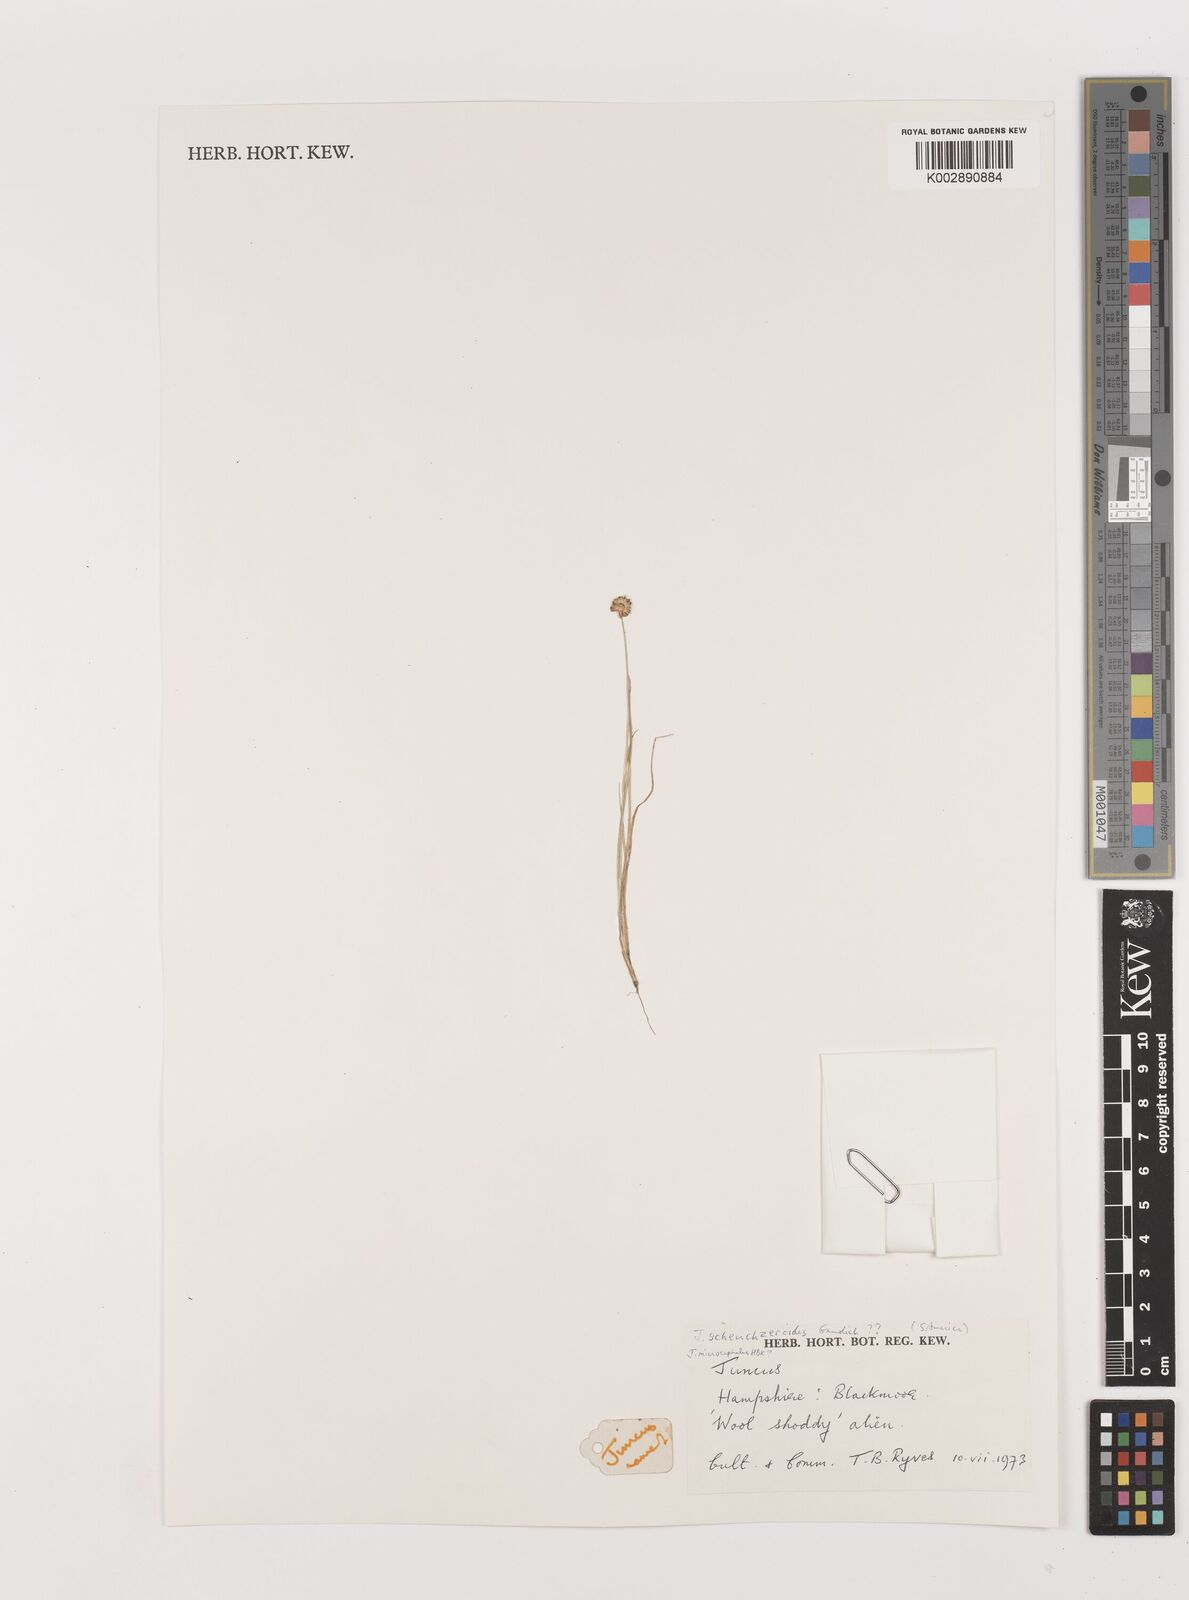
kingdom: Plantae
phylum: Tracheophyta
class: Liliopsida
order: Poales
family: Juncaceae
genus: Juncus
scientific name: Juncus
